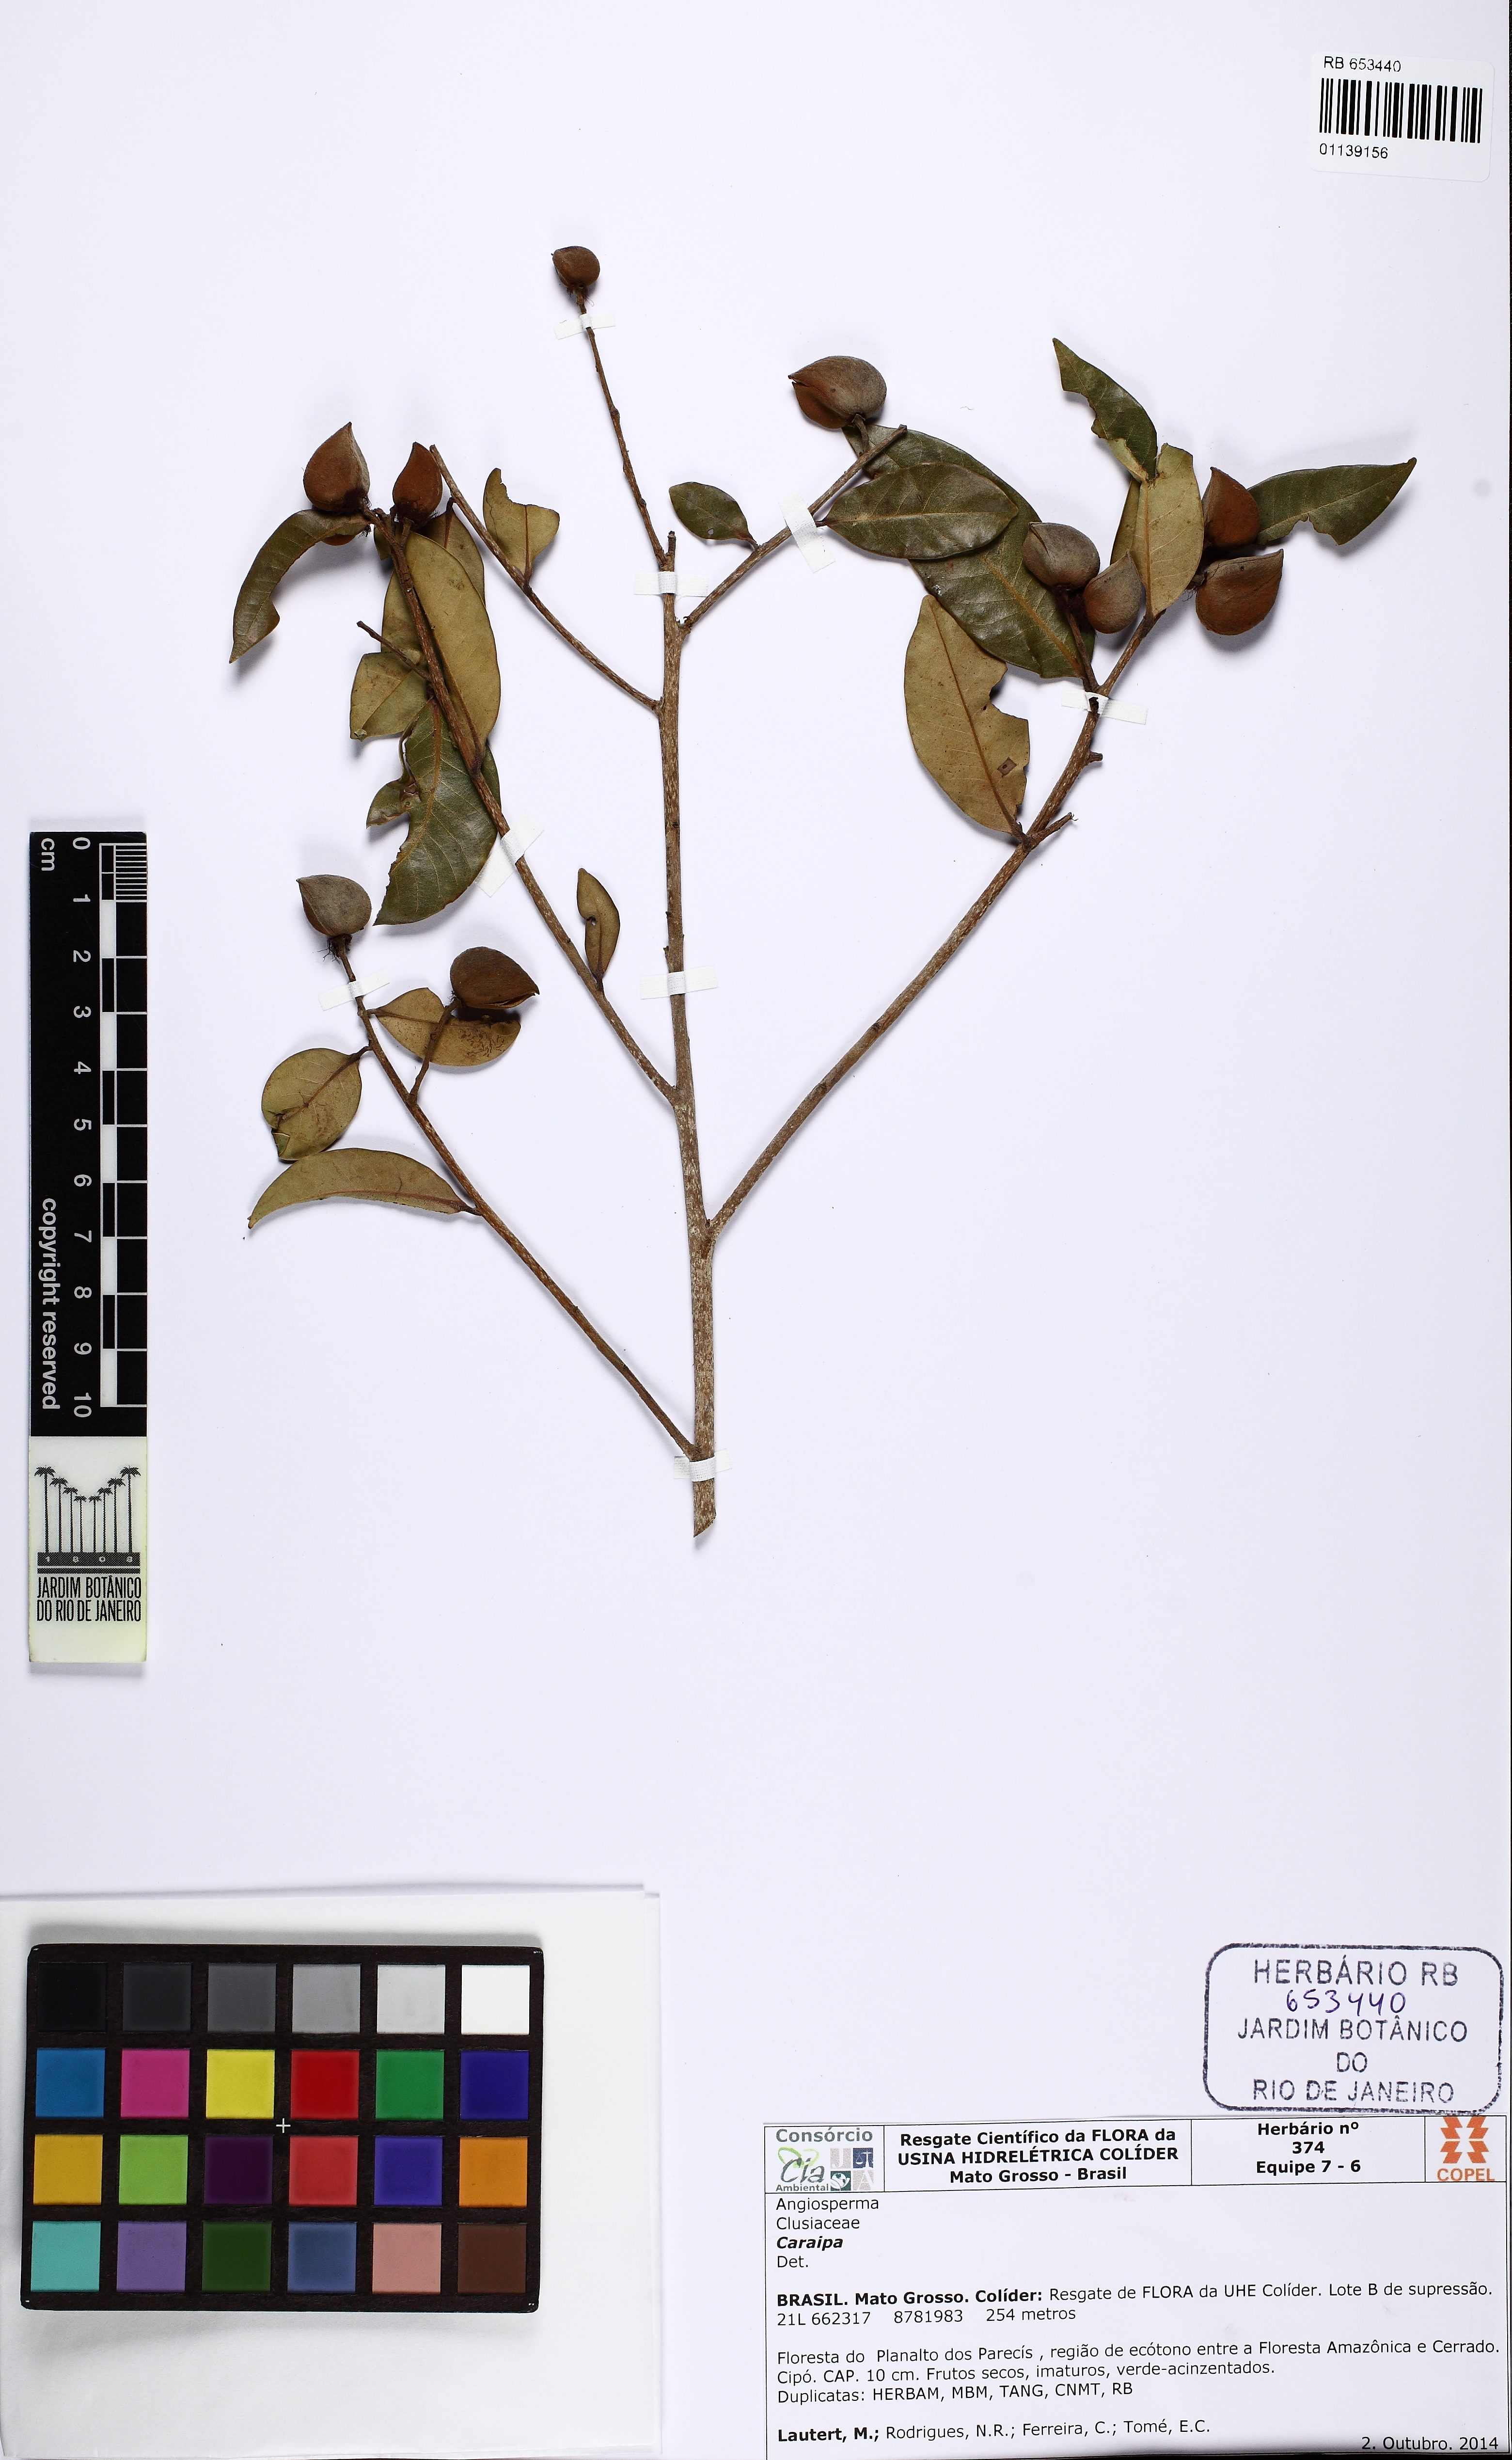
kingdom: Plantae
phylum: Tracheophyta
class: Magnoliopsida
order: Malpighiales
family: Calophyllaceae
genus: Caraipa
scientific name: Caraipa
